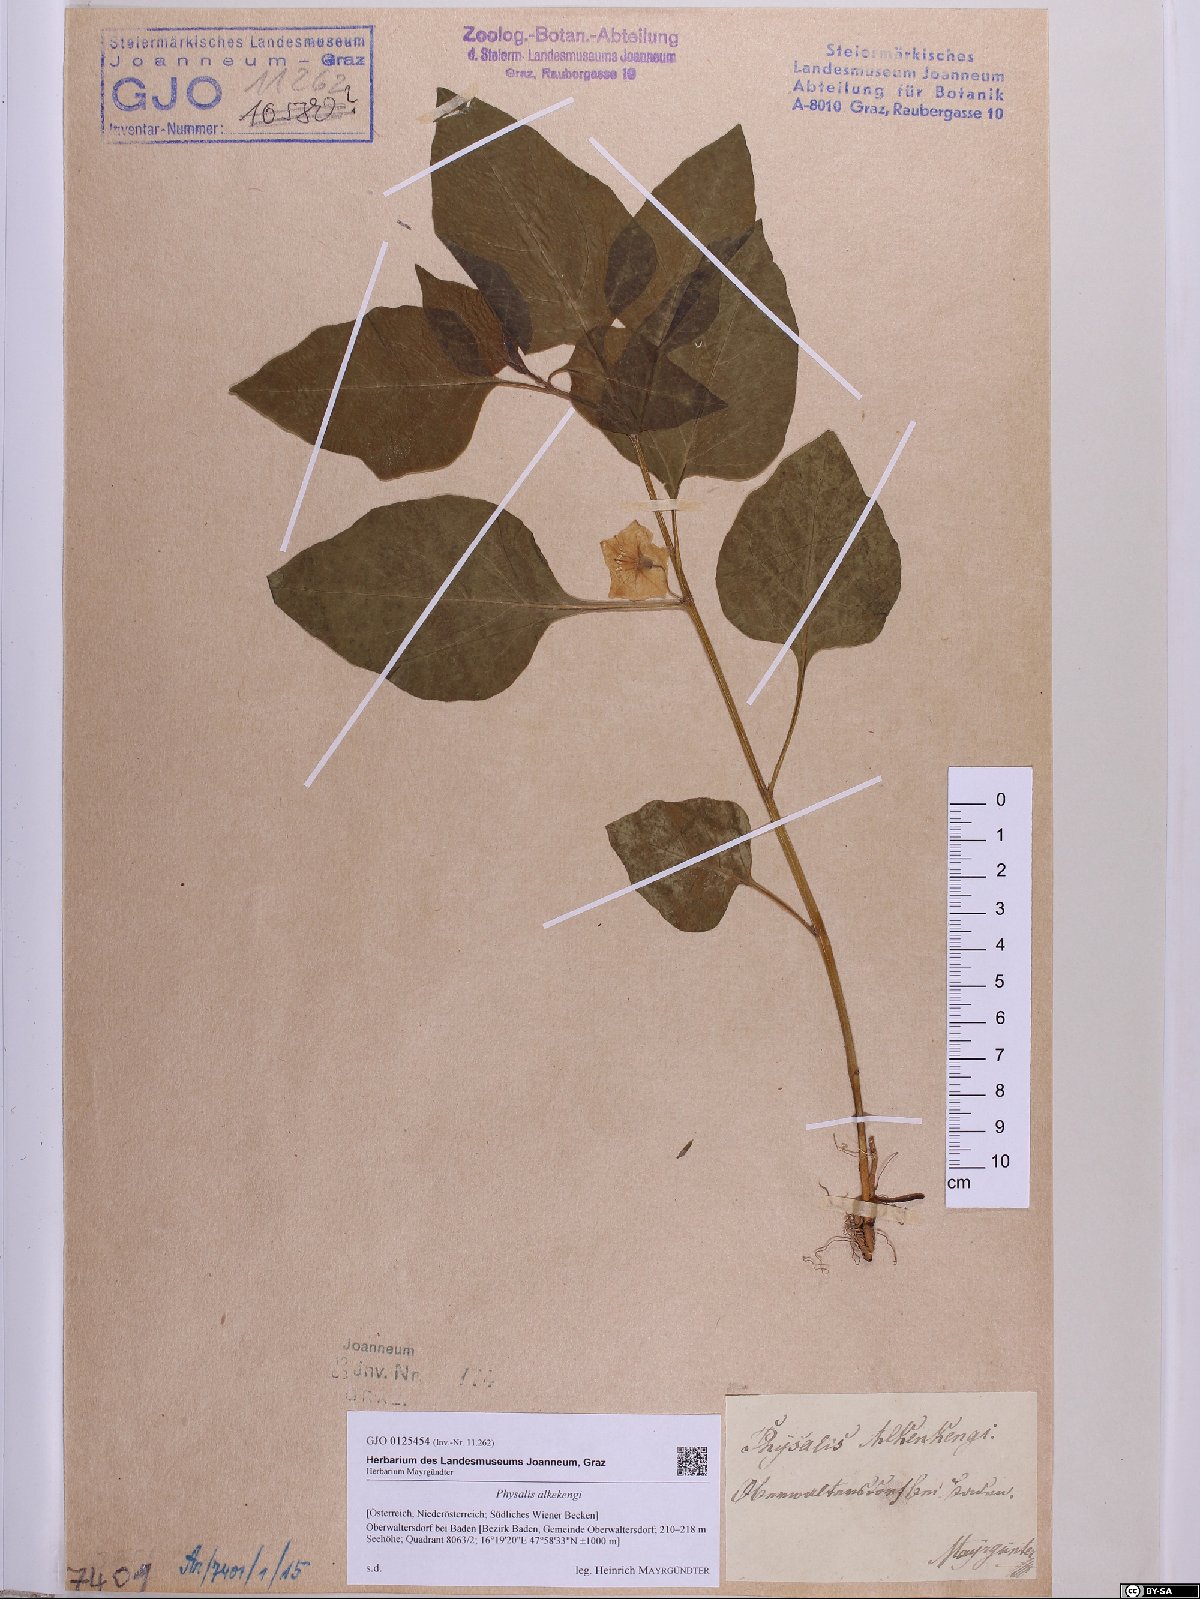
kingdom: Plantae
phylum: Tracheophyta
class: Magnoliopsida
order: Solanales
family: Solanaceae
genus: Alkekengi
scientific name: Alkekengi officinarum
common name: Japanese-lantern
